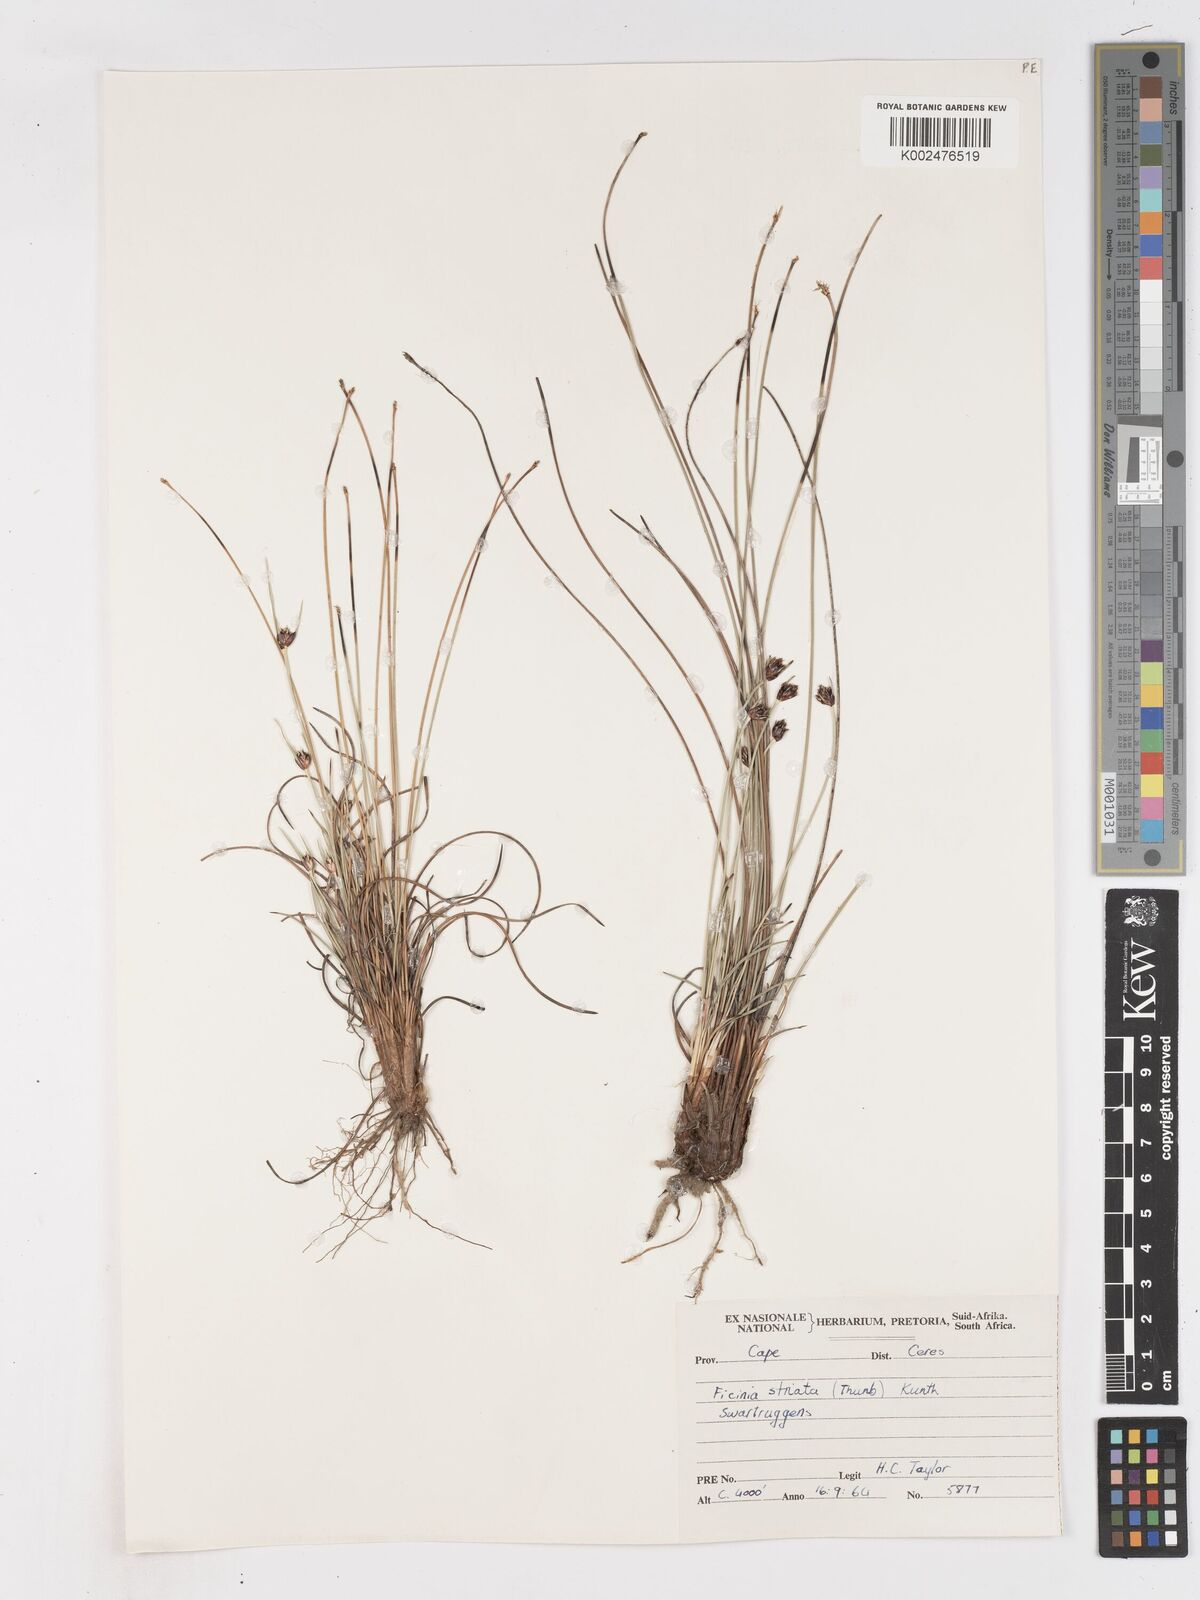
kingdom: Plantae
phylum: Tracheophyta
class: Liliopsida
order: Poales
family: Cyperaceae
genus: Ficinia
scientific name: Ficinia dunensis
